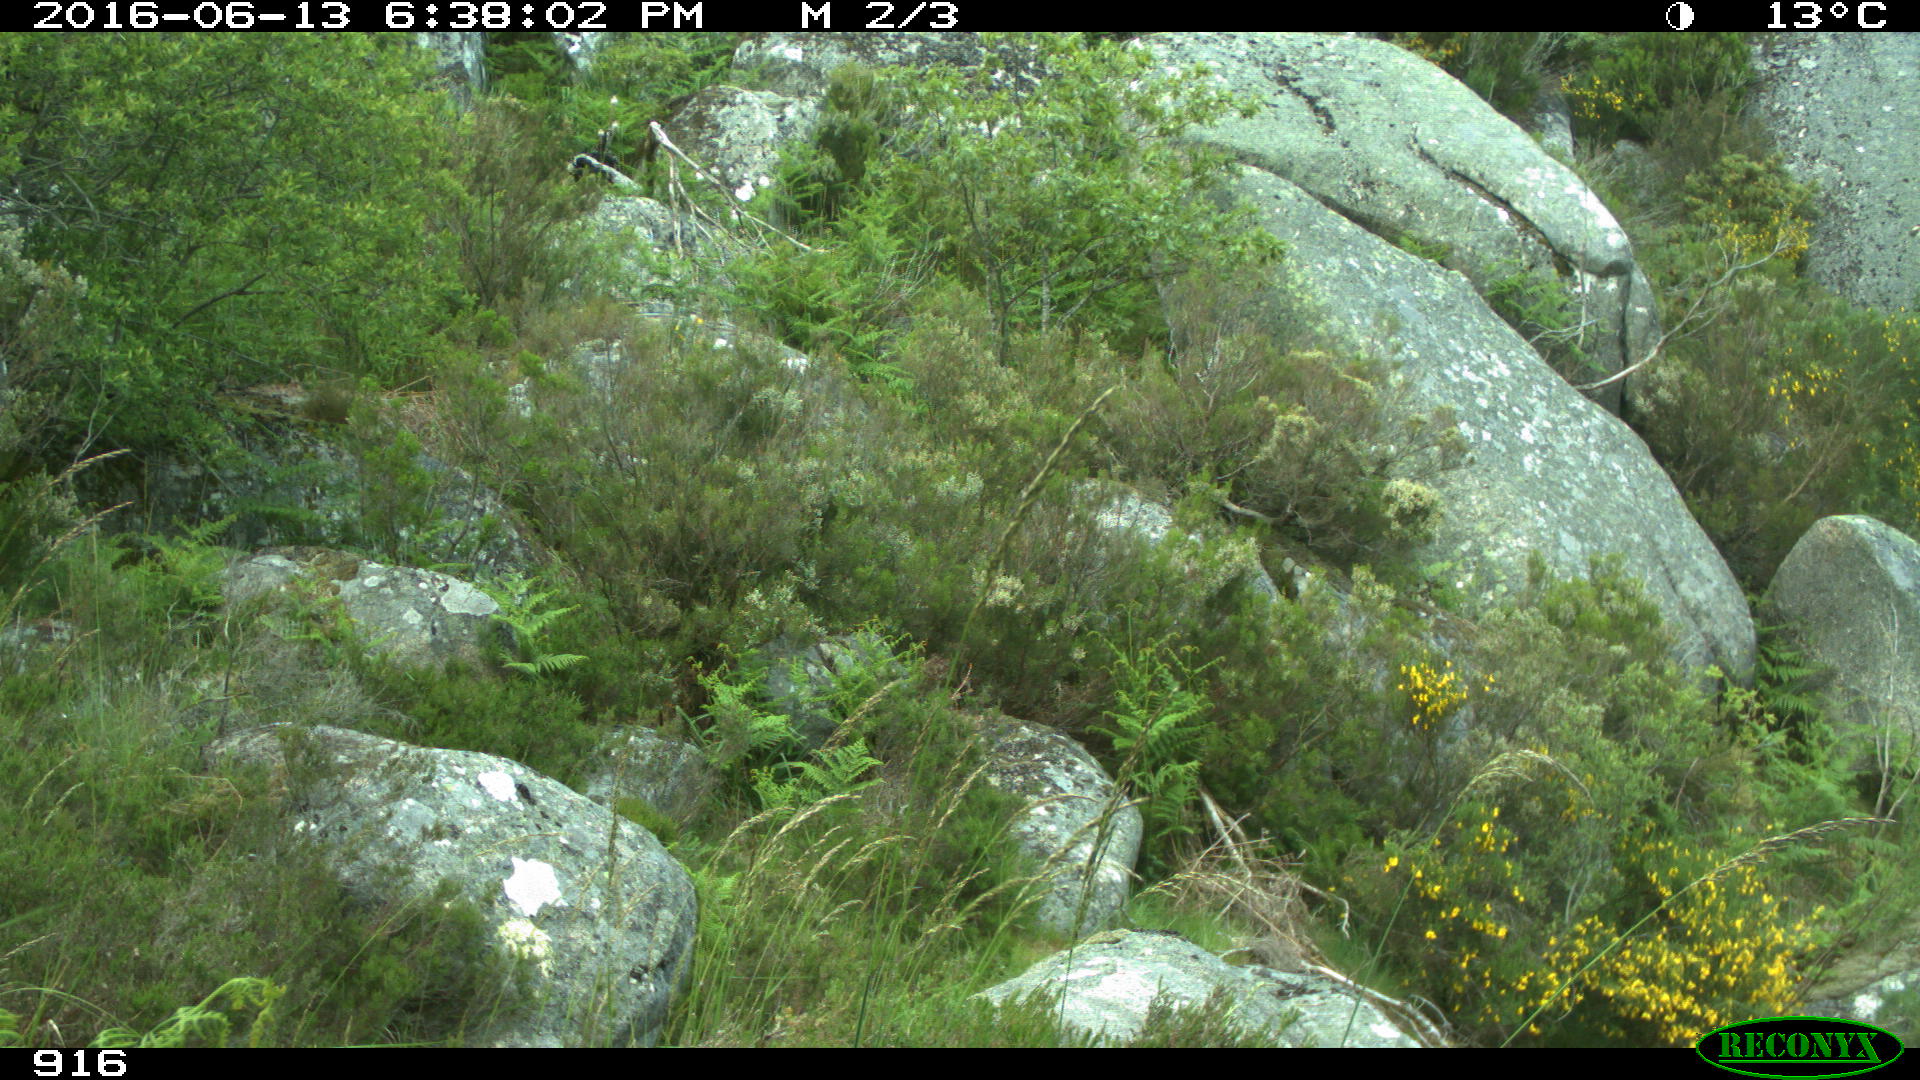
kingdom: Animalia
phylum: Chordata
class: Mammalia
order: Artiodactyla
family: Cervidae
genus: Capreolus
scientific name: Capreolus capreolus
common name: Western roe deer
